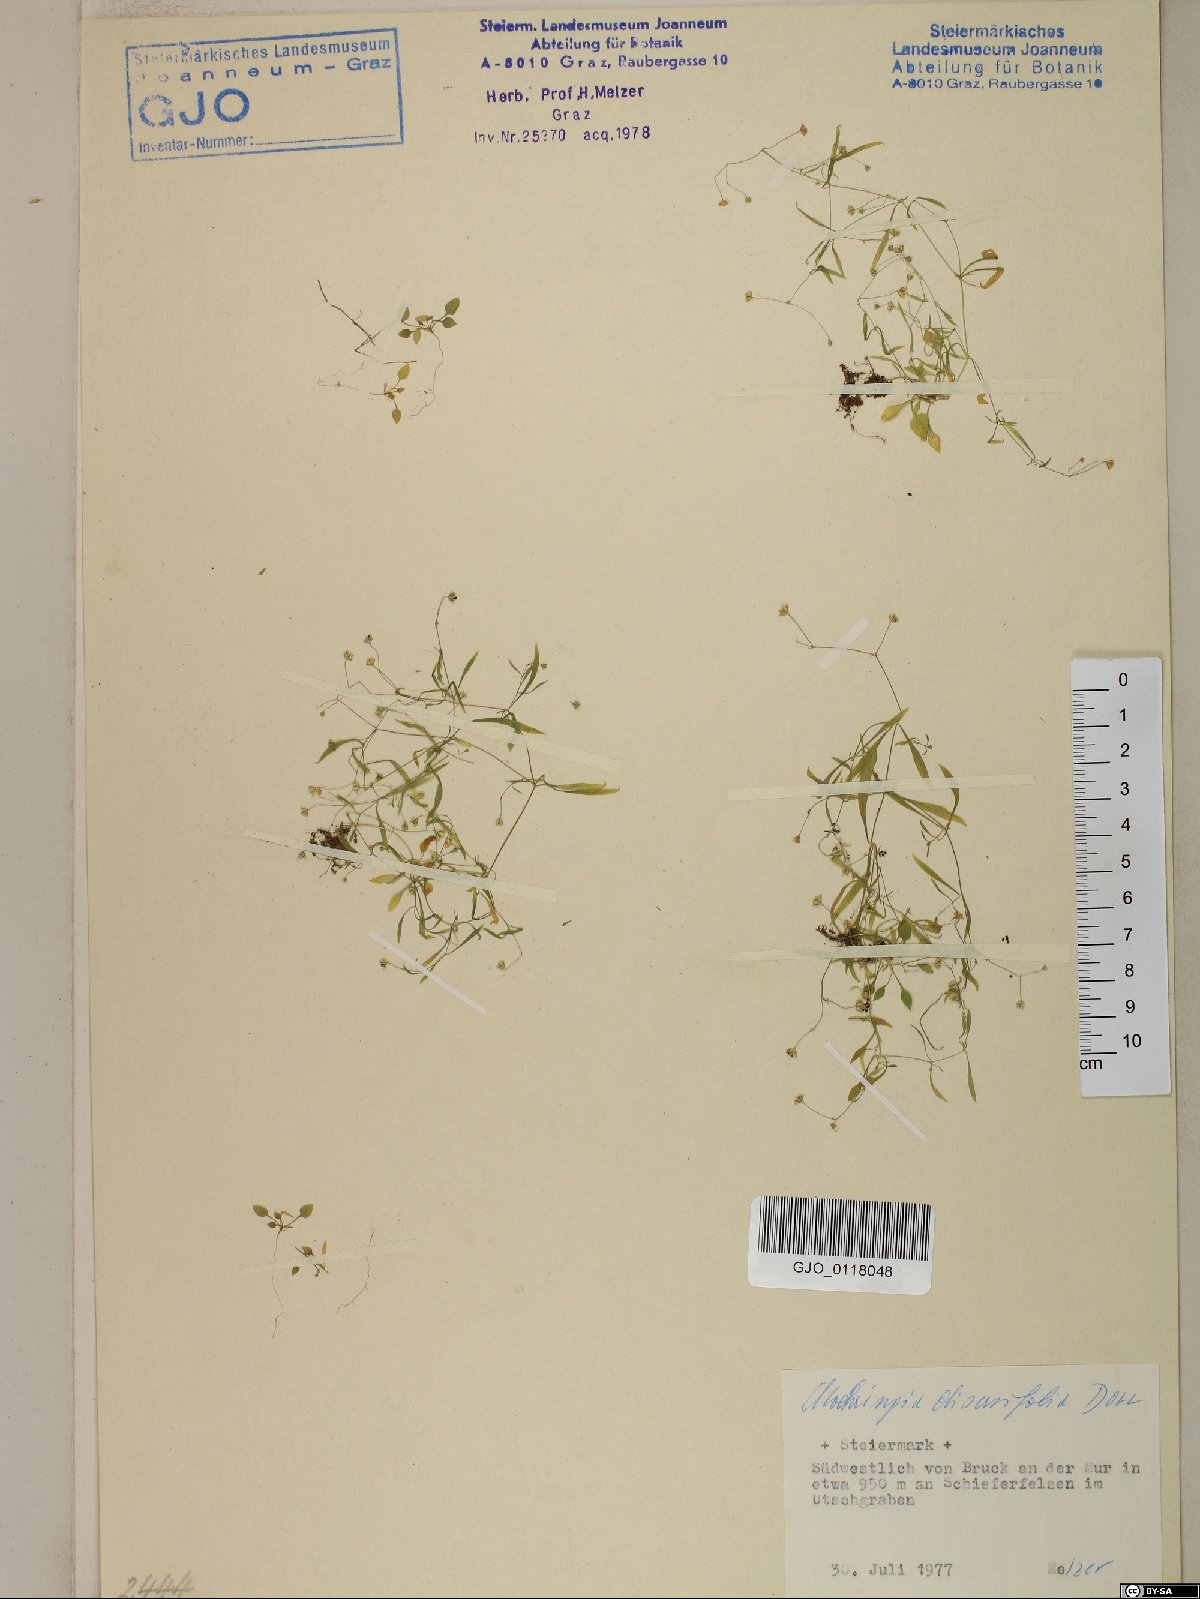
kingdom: Plantae
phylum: Tracheophyta
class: Magnoliopsida
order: Caryophyllales
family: Caryophyllaceae
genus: Moehringia
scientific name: Moehringia diversifolia
